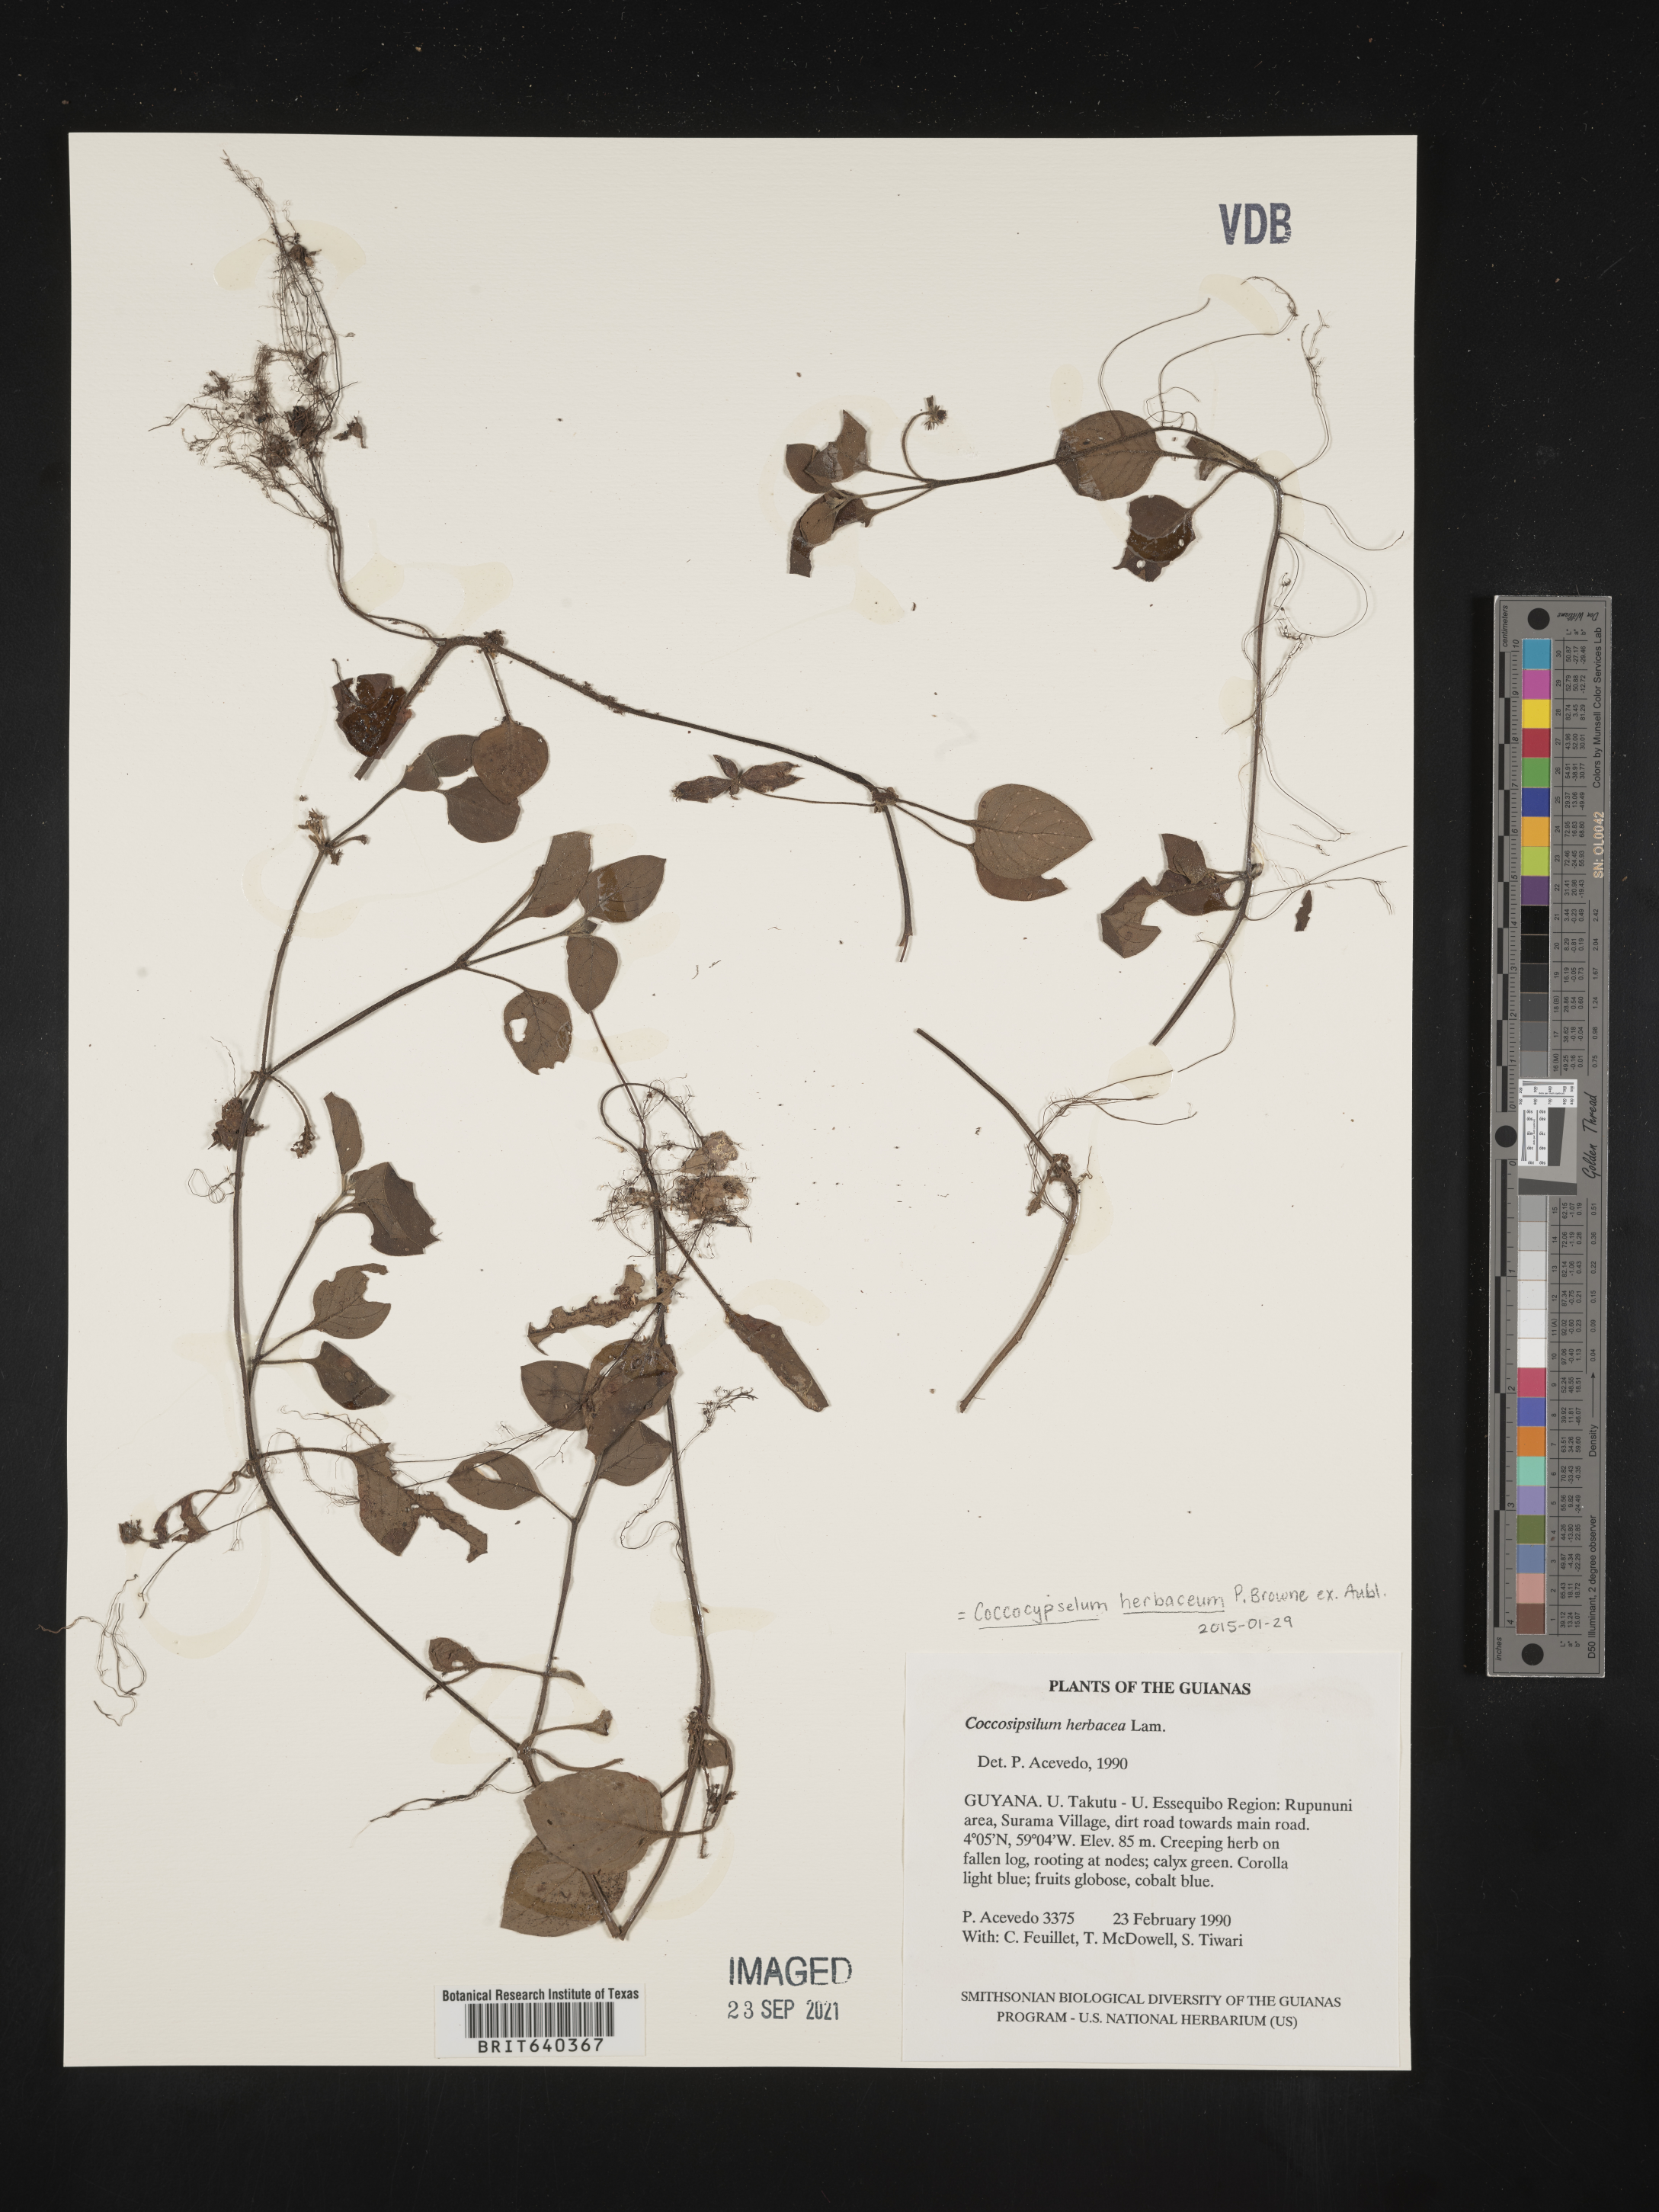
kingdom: Plantae
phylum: Tracheophyta
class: Magnoliopsida
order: Gentianales
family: Rubiaceae
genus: Coccocypselum
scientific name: Coccocypselum
